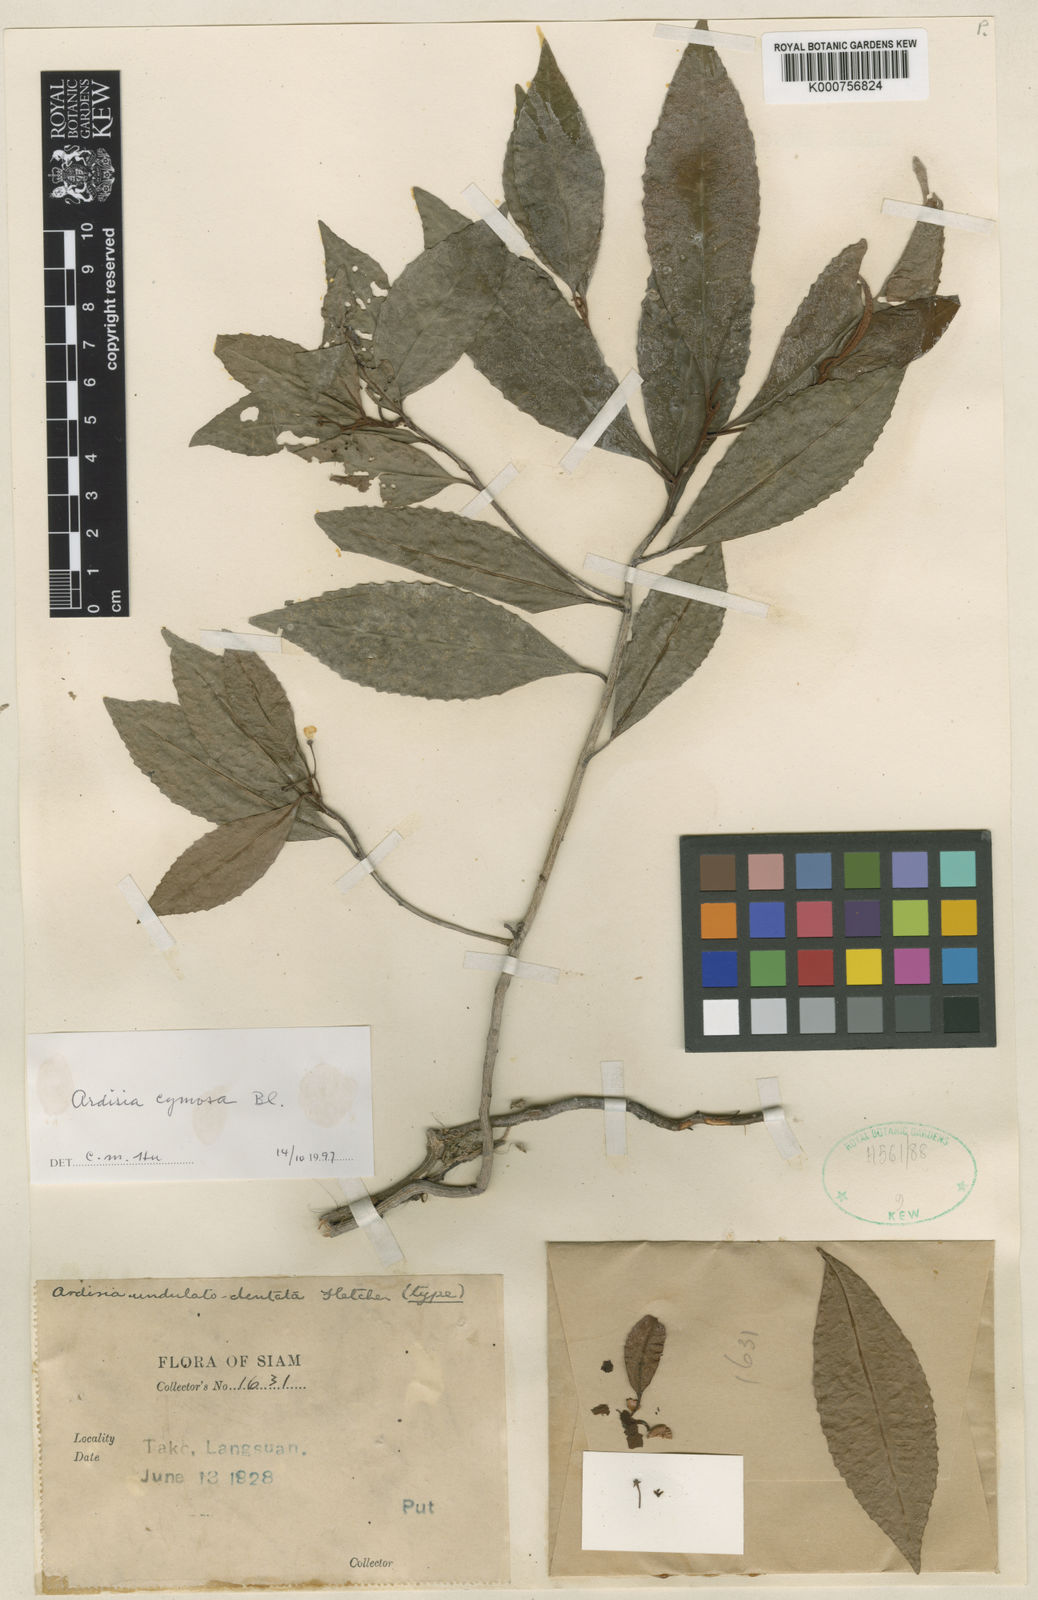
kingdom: Plantae
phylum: Tracheophyta
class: Magnoliopsida
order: Ericales
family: Primulaceae
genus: Ardisia
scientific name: Ardisia cymosa
